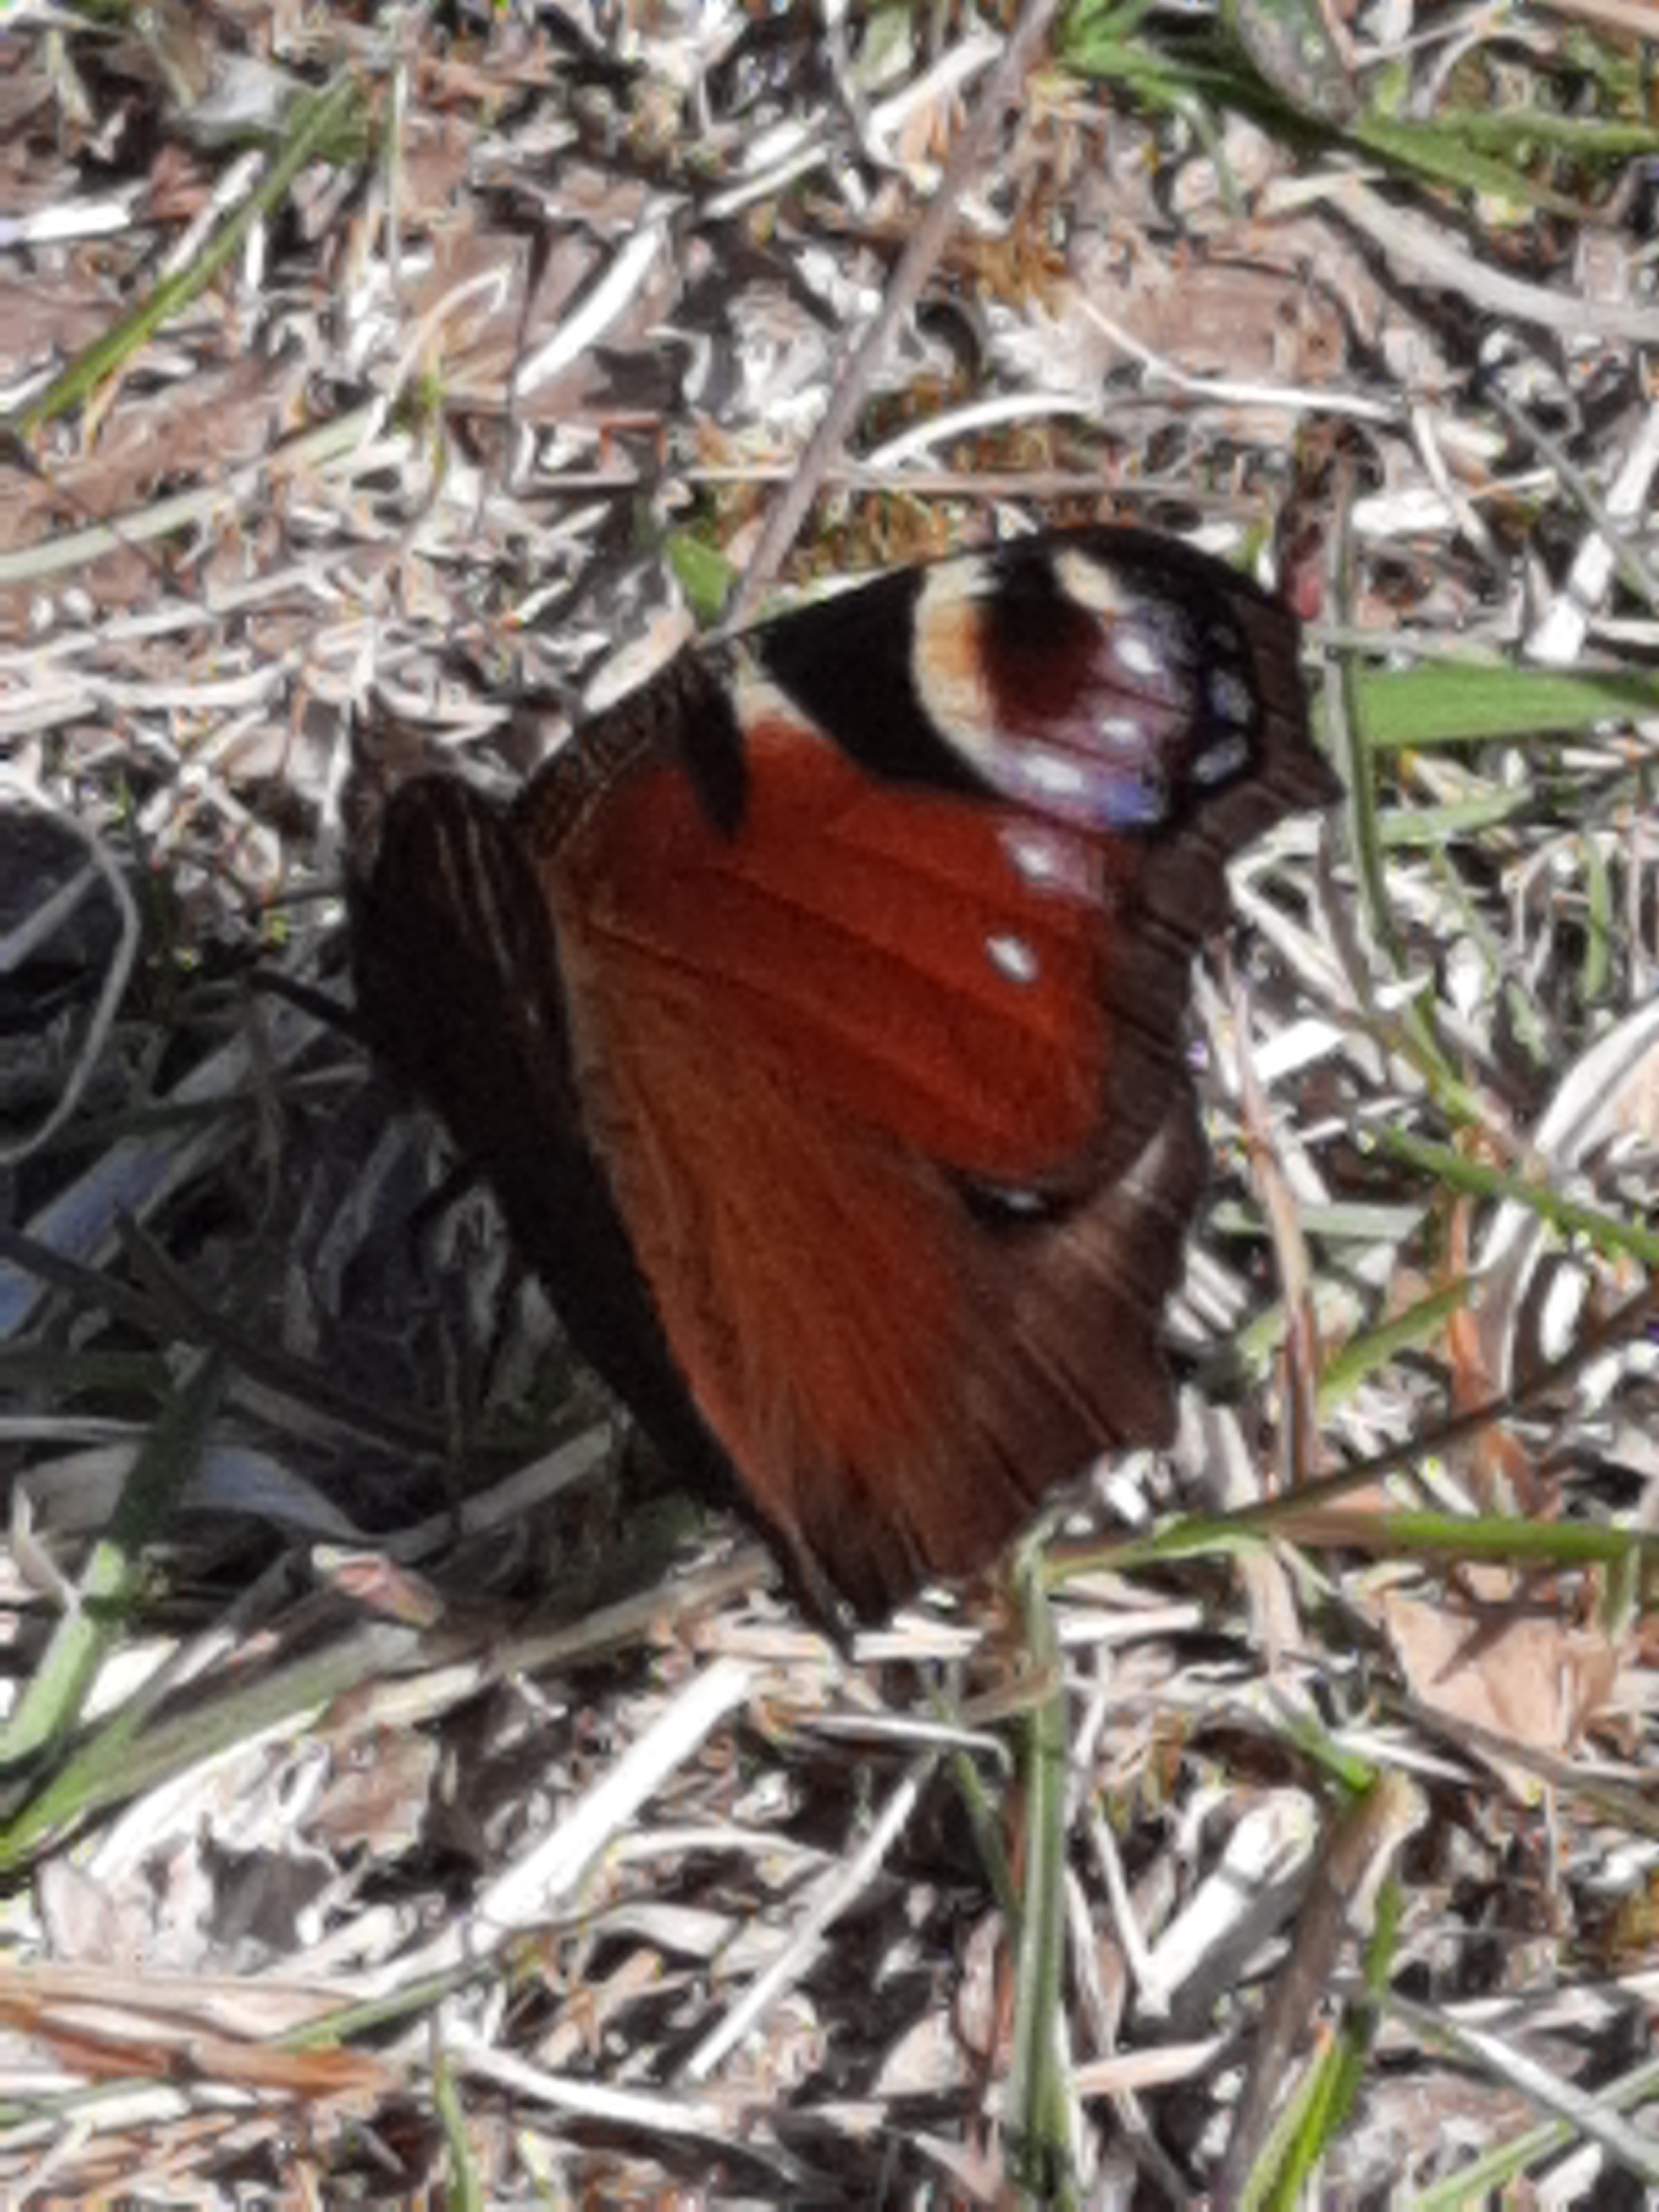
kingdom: Animalia
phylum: Arthropoda
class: Insecta
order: Lepidoptera
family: Nymphalidae
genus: Aglais
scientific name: Aglais io
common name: Dagpåfugleøje
